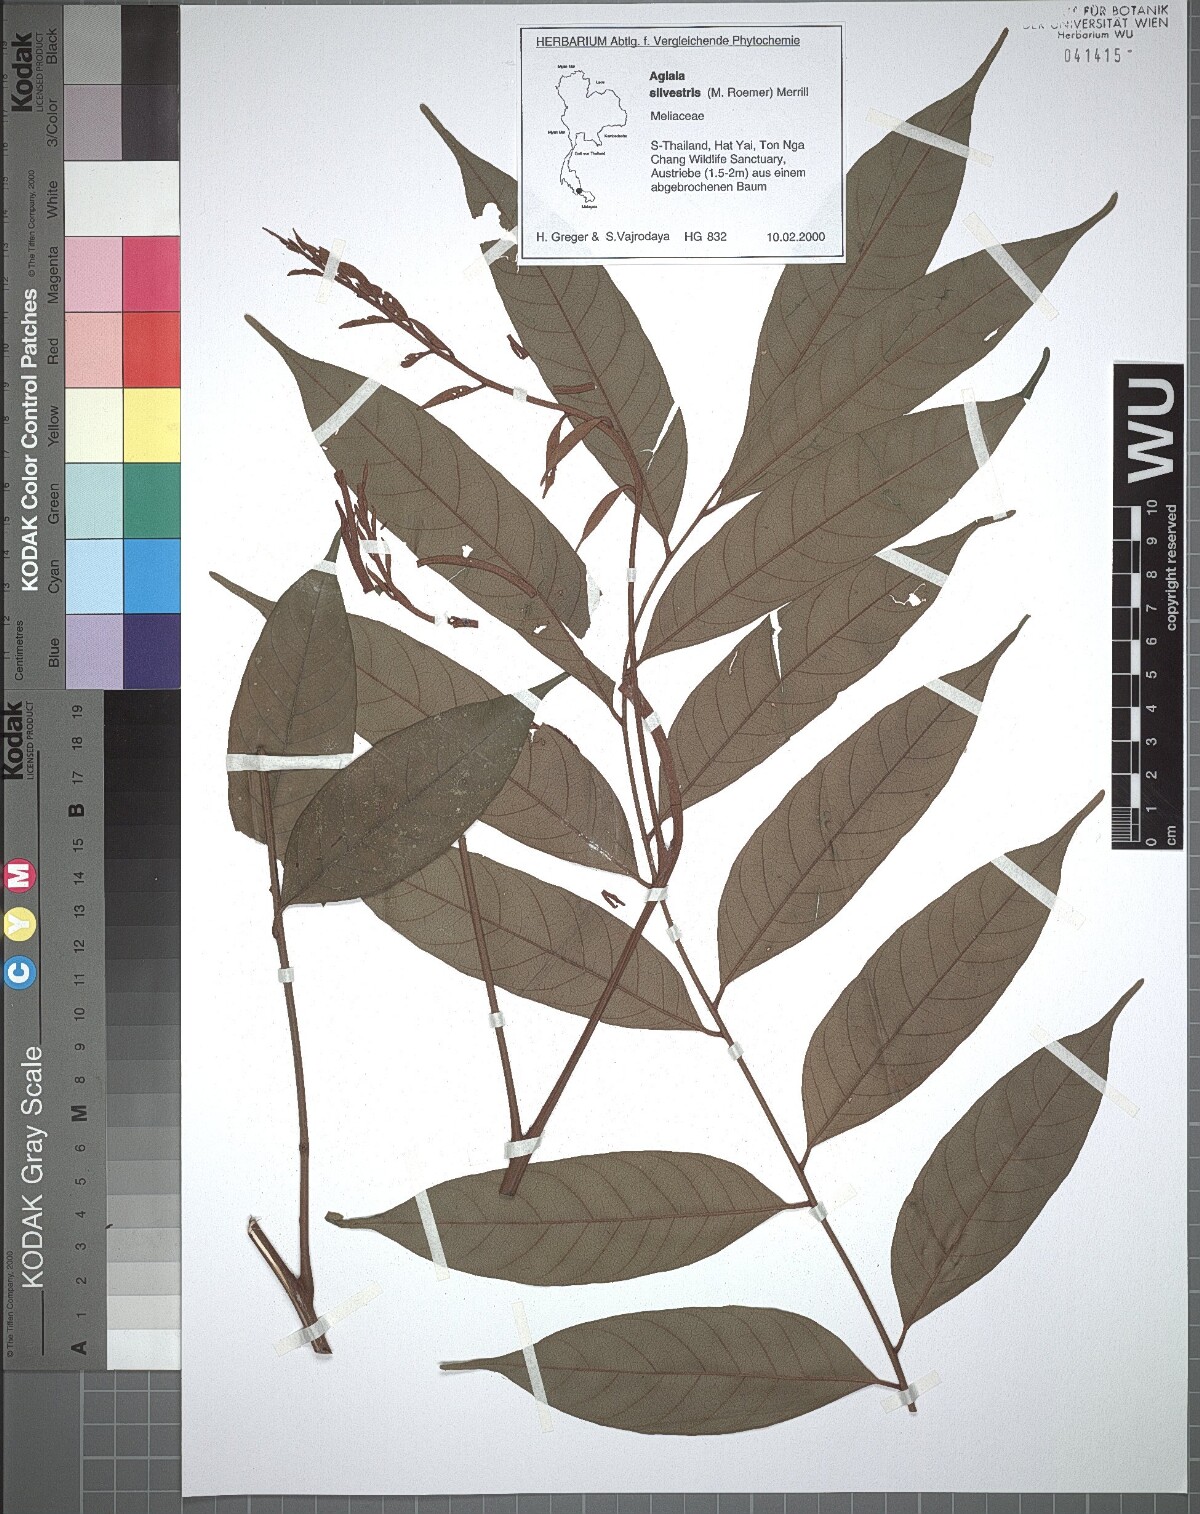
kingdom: Plantae
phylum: Tracheophyta
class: Magnoliopsida
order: Sapindales
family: Meliaceae
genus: Aglaia
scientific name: Aglaia silvestris
